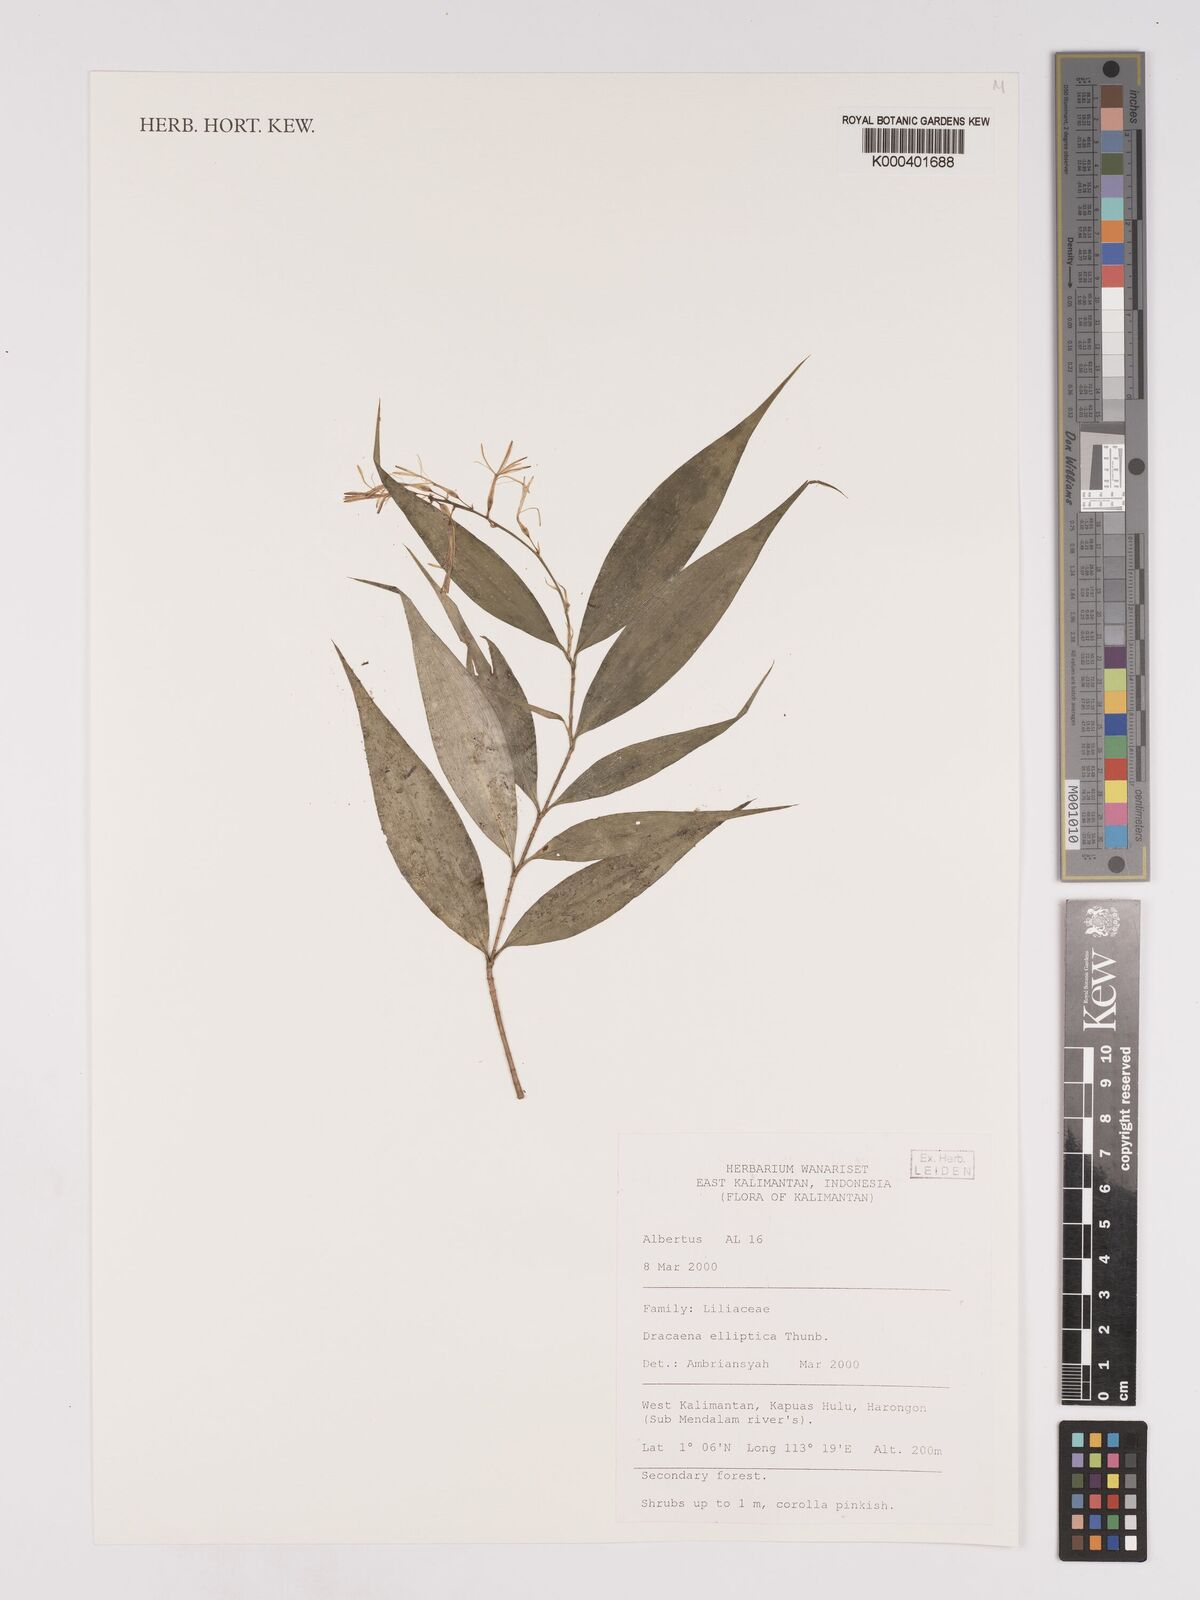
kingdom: Plantae
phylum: Tracheophyta
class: Liliopsida
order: Asparagales
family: Asparagaceae
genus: Dracaena
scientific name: Dracaena elliptica
